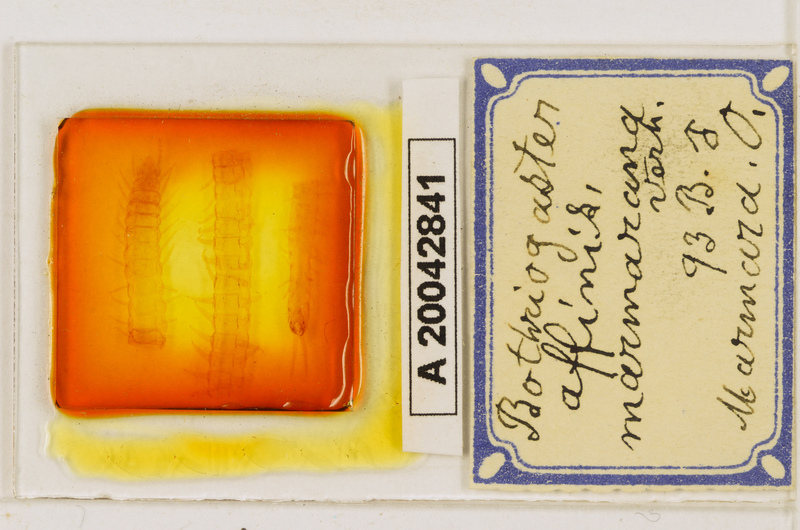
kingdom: Animalia
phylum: Arthropoda
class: Chilopoda
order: Geophilomorpha
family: Himantariidae
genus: Bothriogaster
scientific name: Bothriogaster signata
